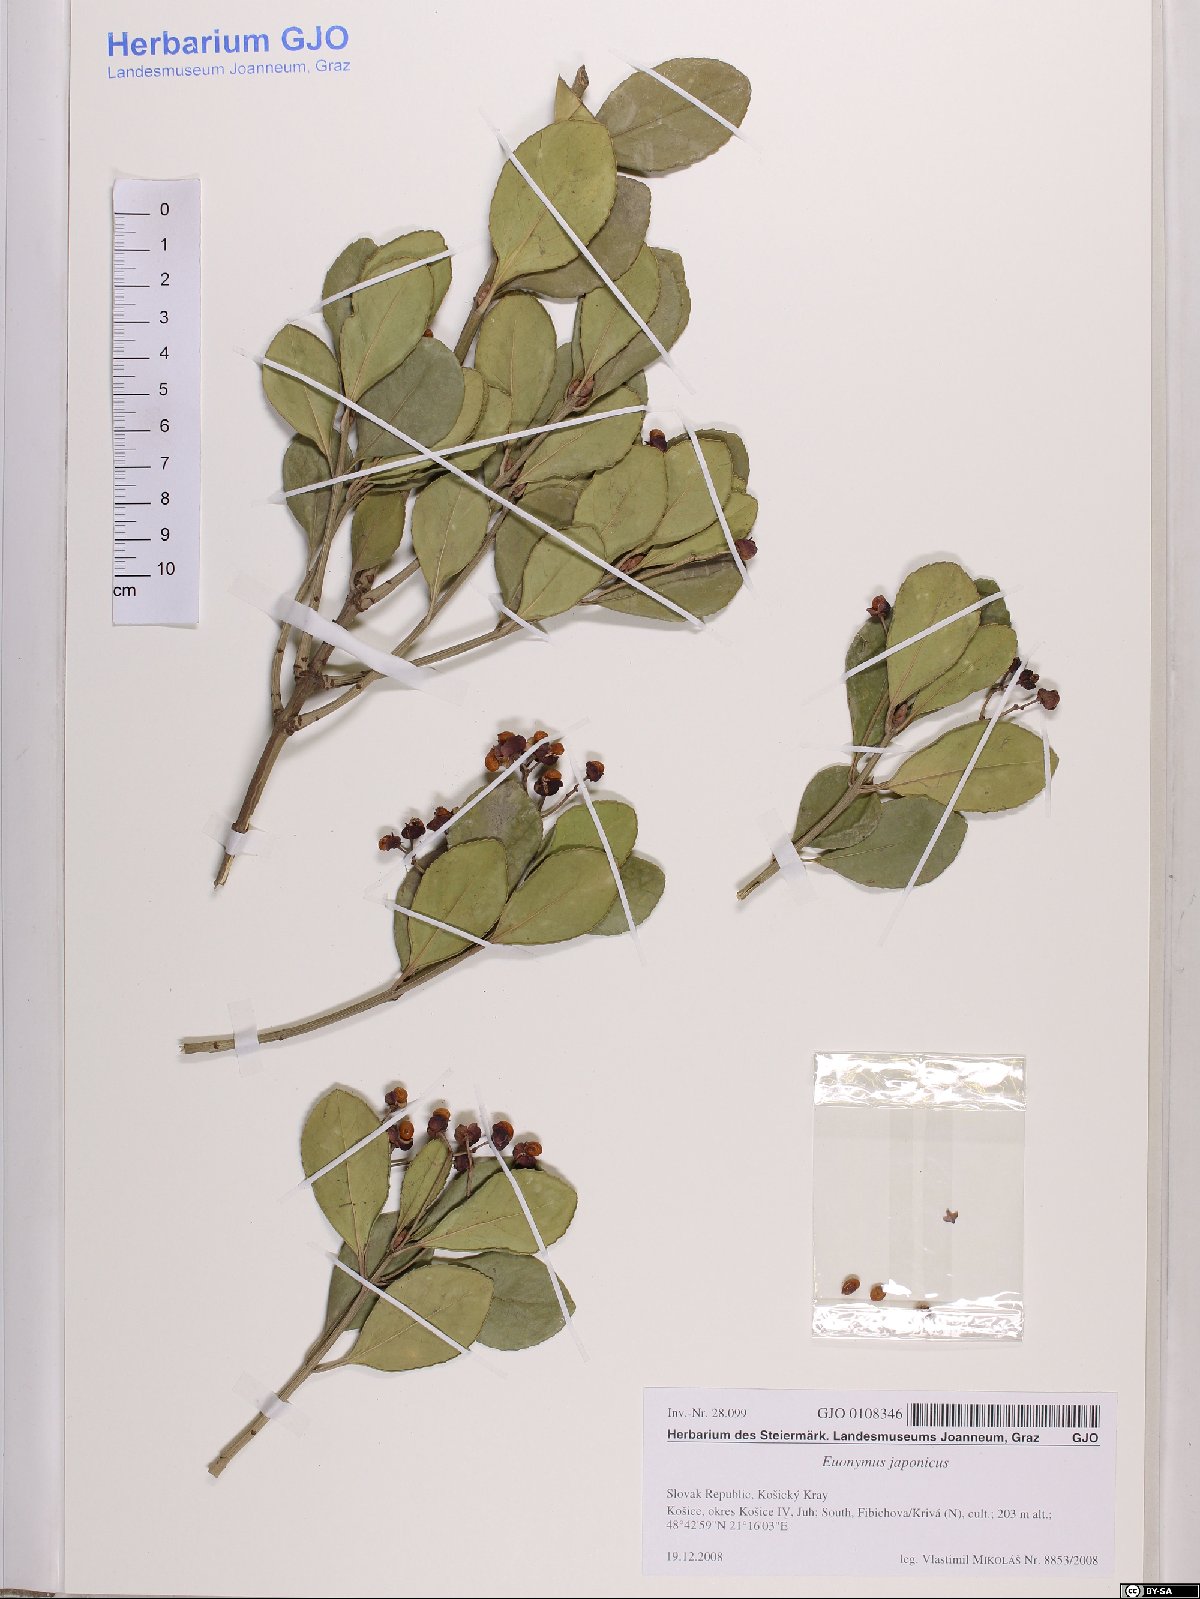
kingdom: Plantae
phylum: Tracheophyta
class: Magnoliopsida
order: Celastrales
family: Celastraceae
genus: Euonymus
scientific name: Euonymus fortunei
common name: Climbing euonymus
